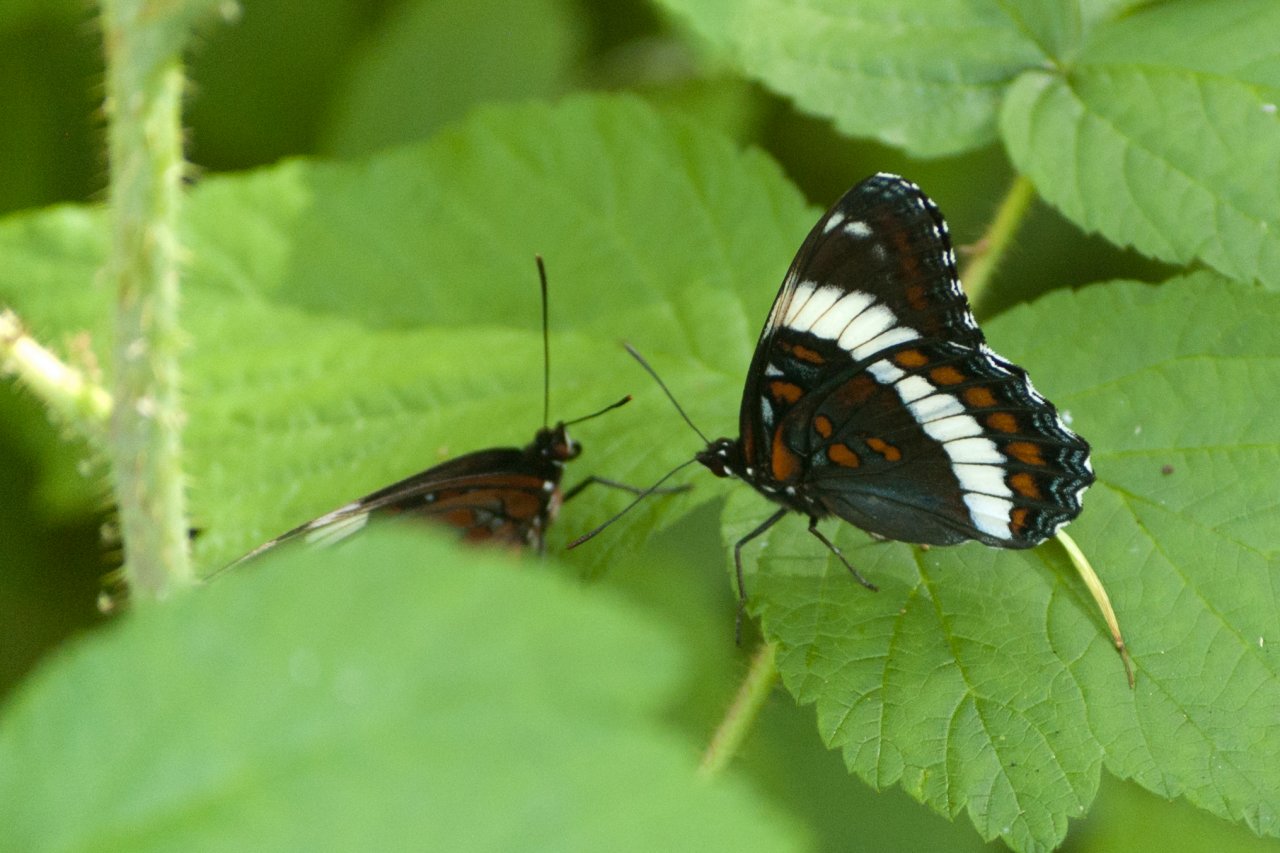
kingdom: Animalia
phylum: Arthropoda
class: Insecta
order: Lepidoptera
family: Nymphalidae
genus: Limenitis
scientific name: Limenitis arthemis
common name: Red-spotted Admiral
